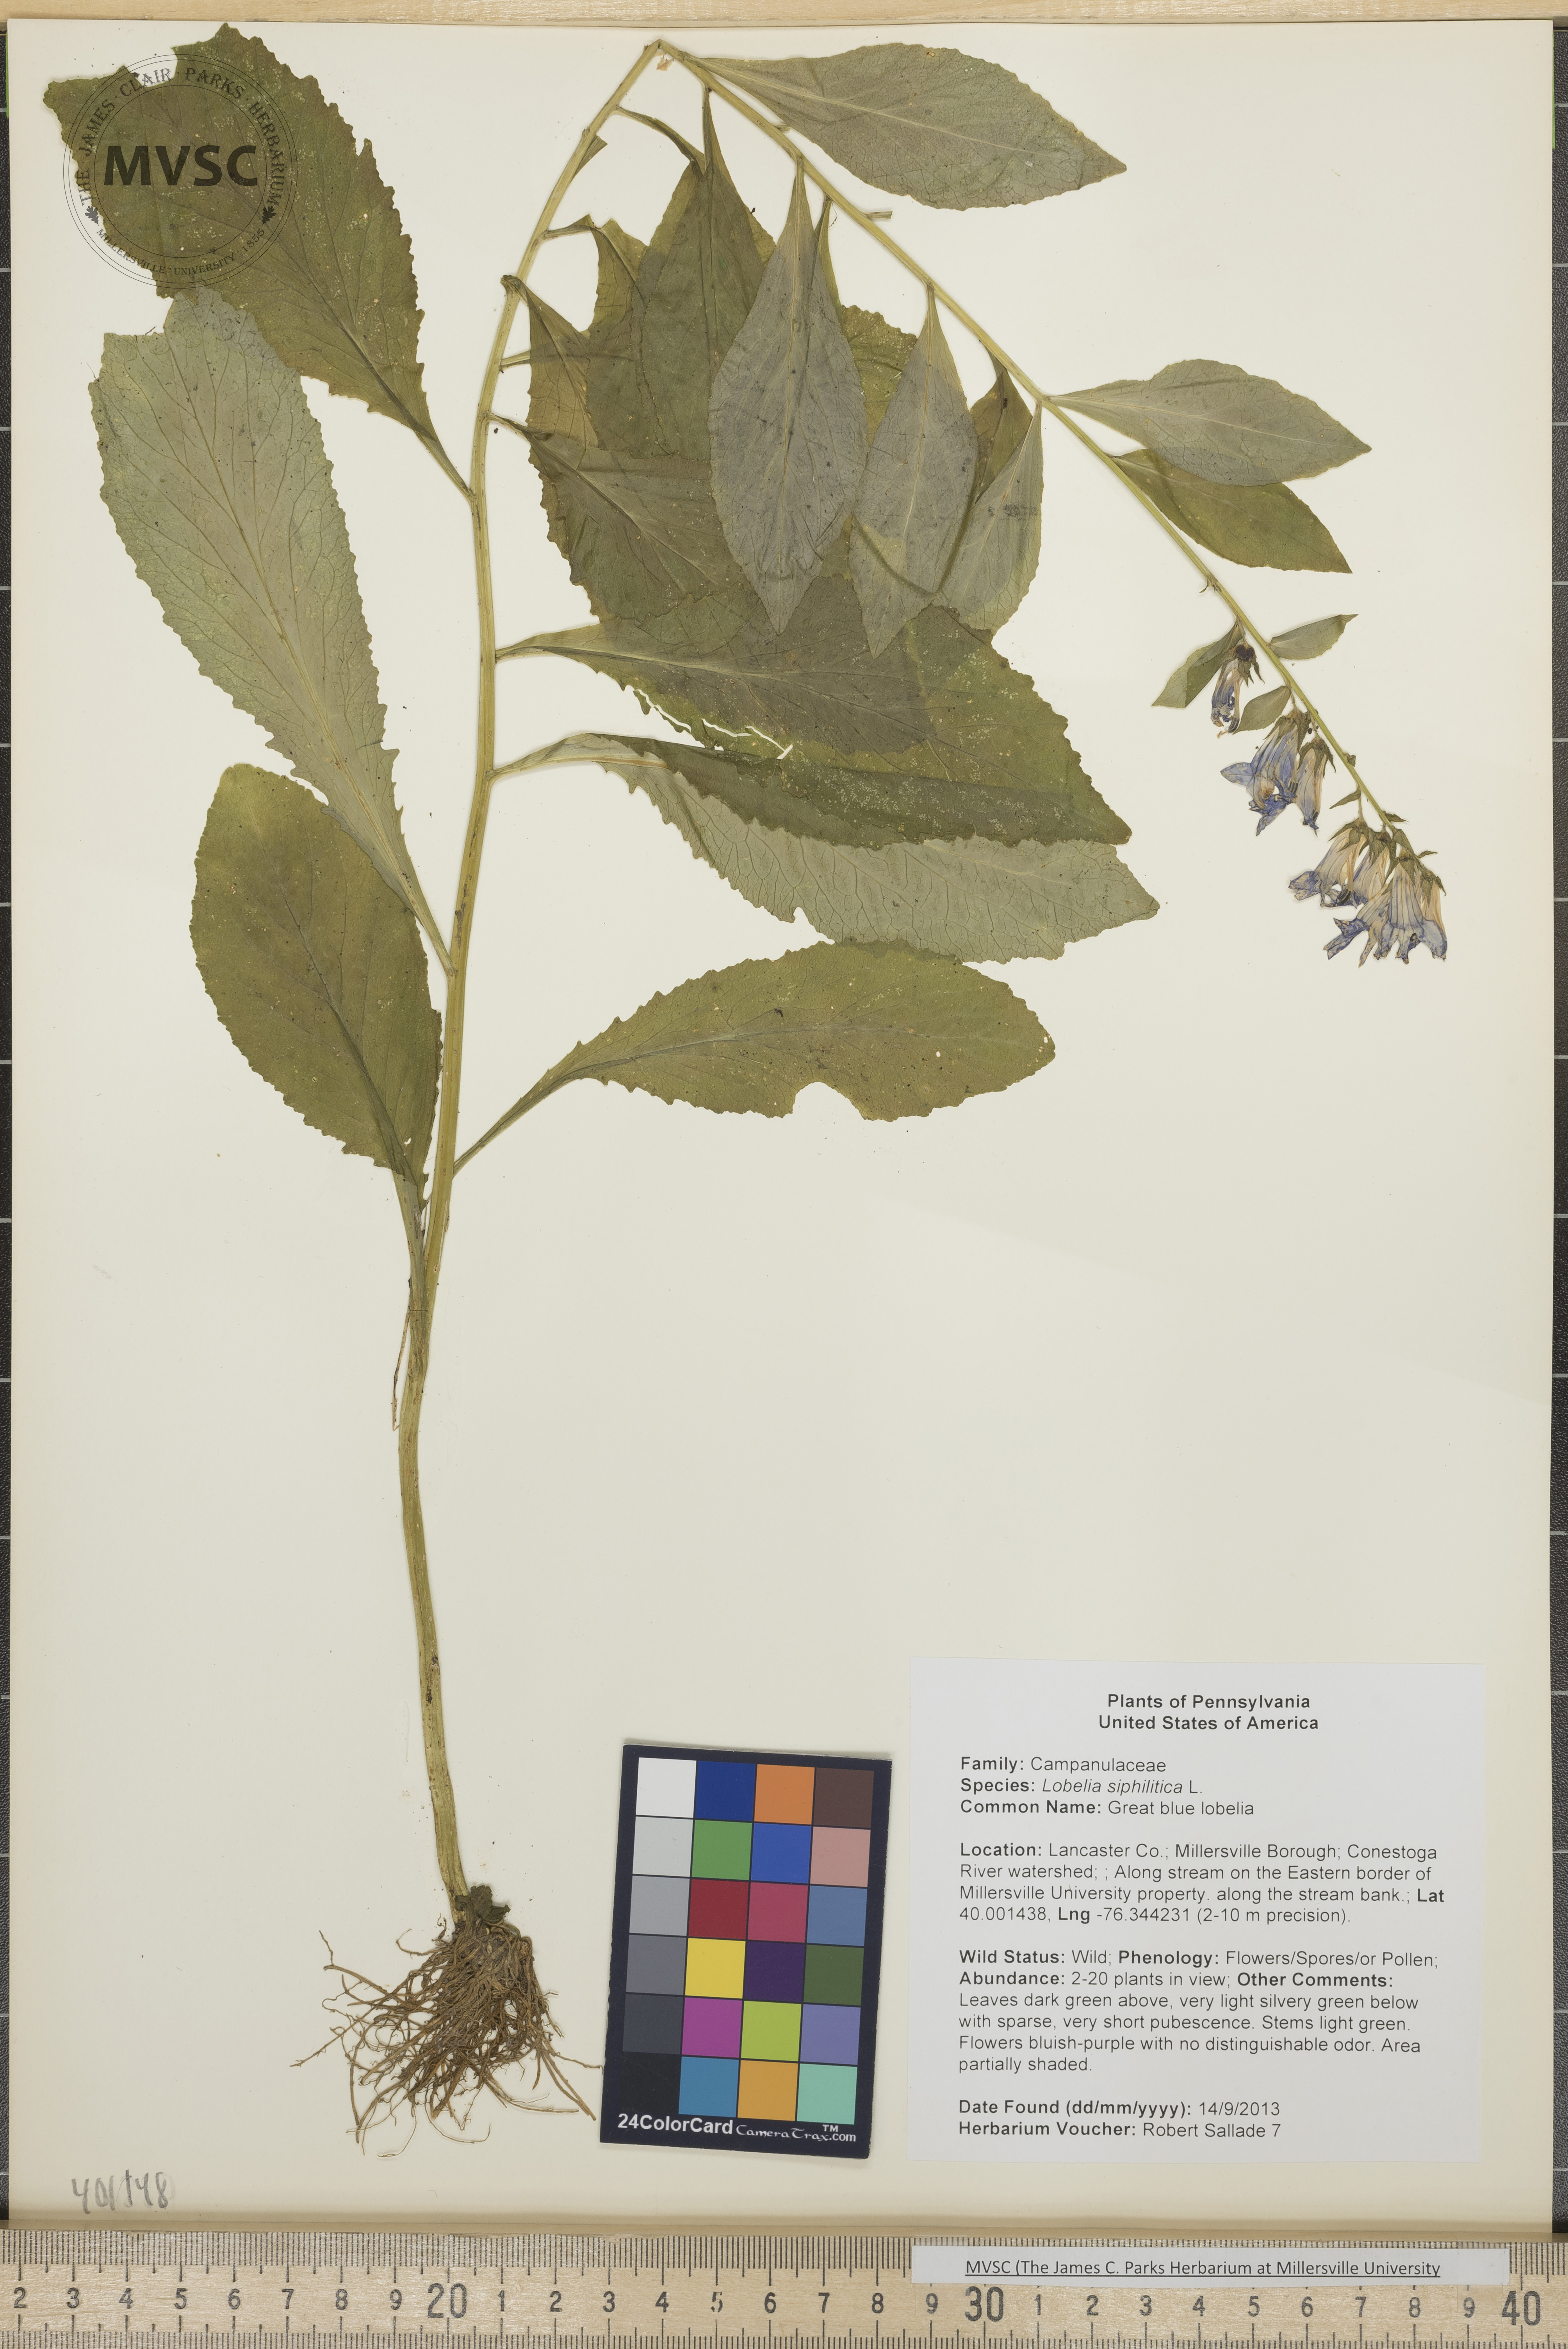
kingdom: Plantae
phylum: Tracheophyta
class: Magnoliopsida
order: Asterales
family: Campanulaceae
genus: Lobelia
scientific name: Lobelia siphilitica
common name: Great blue lobelia
